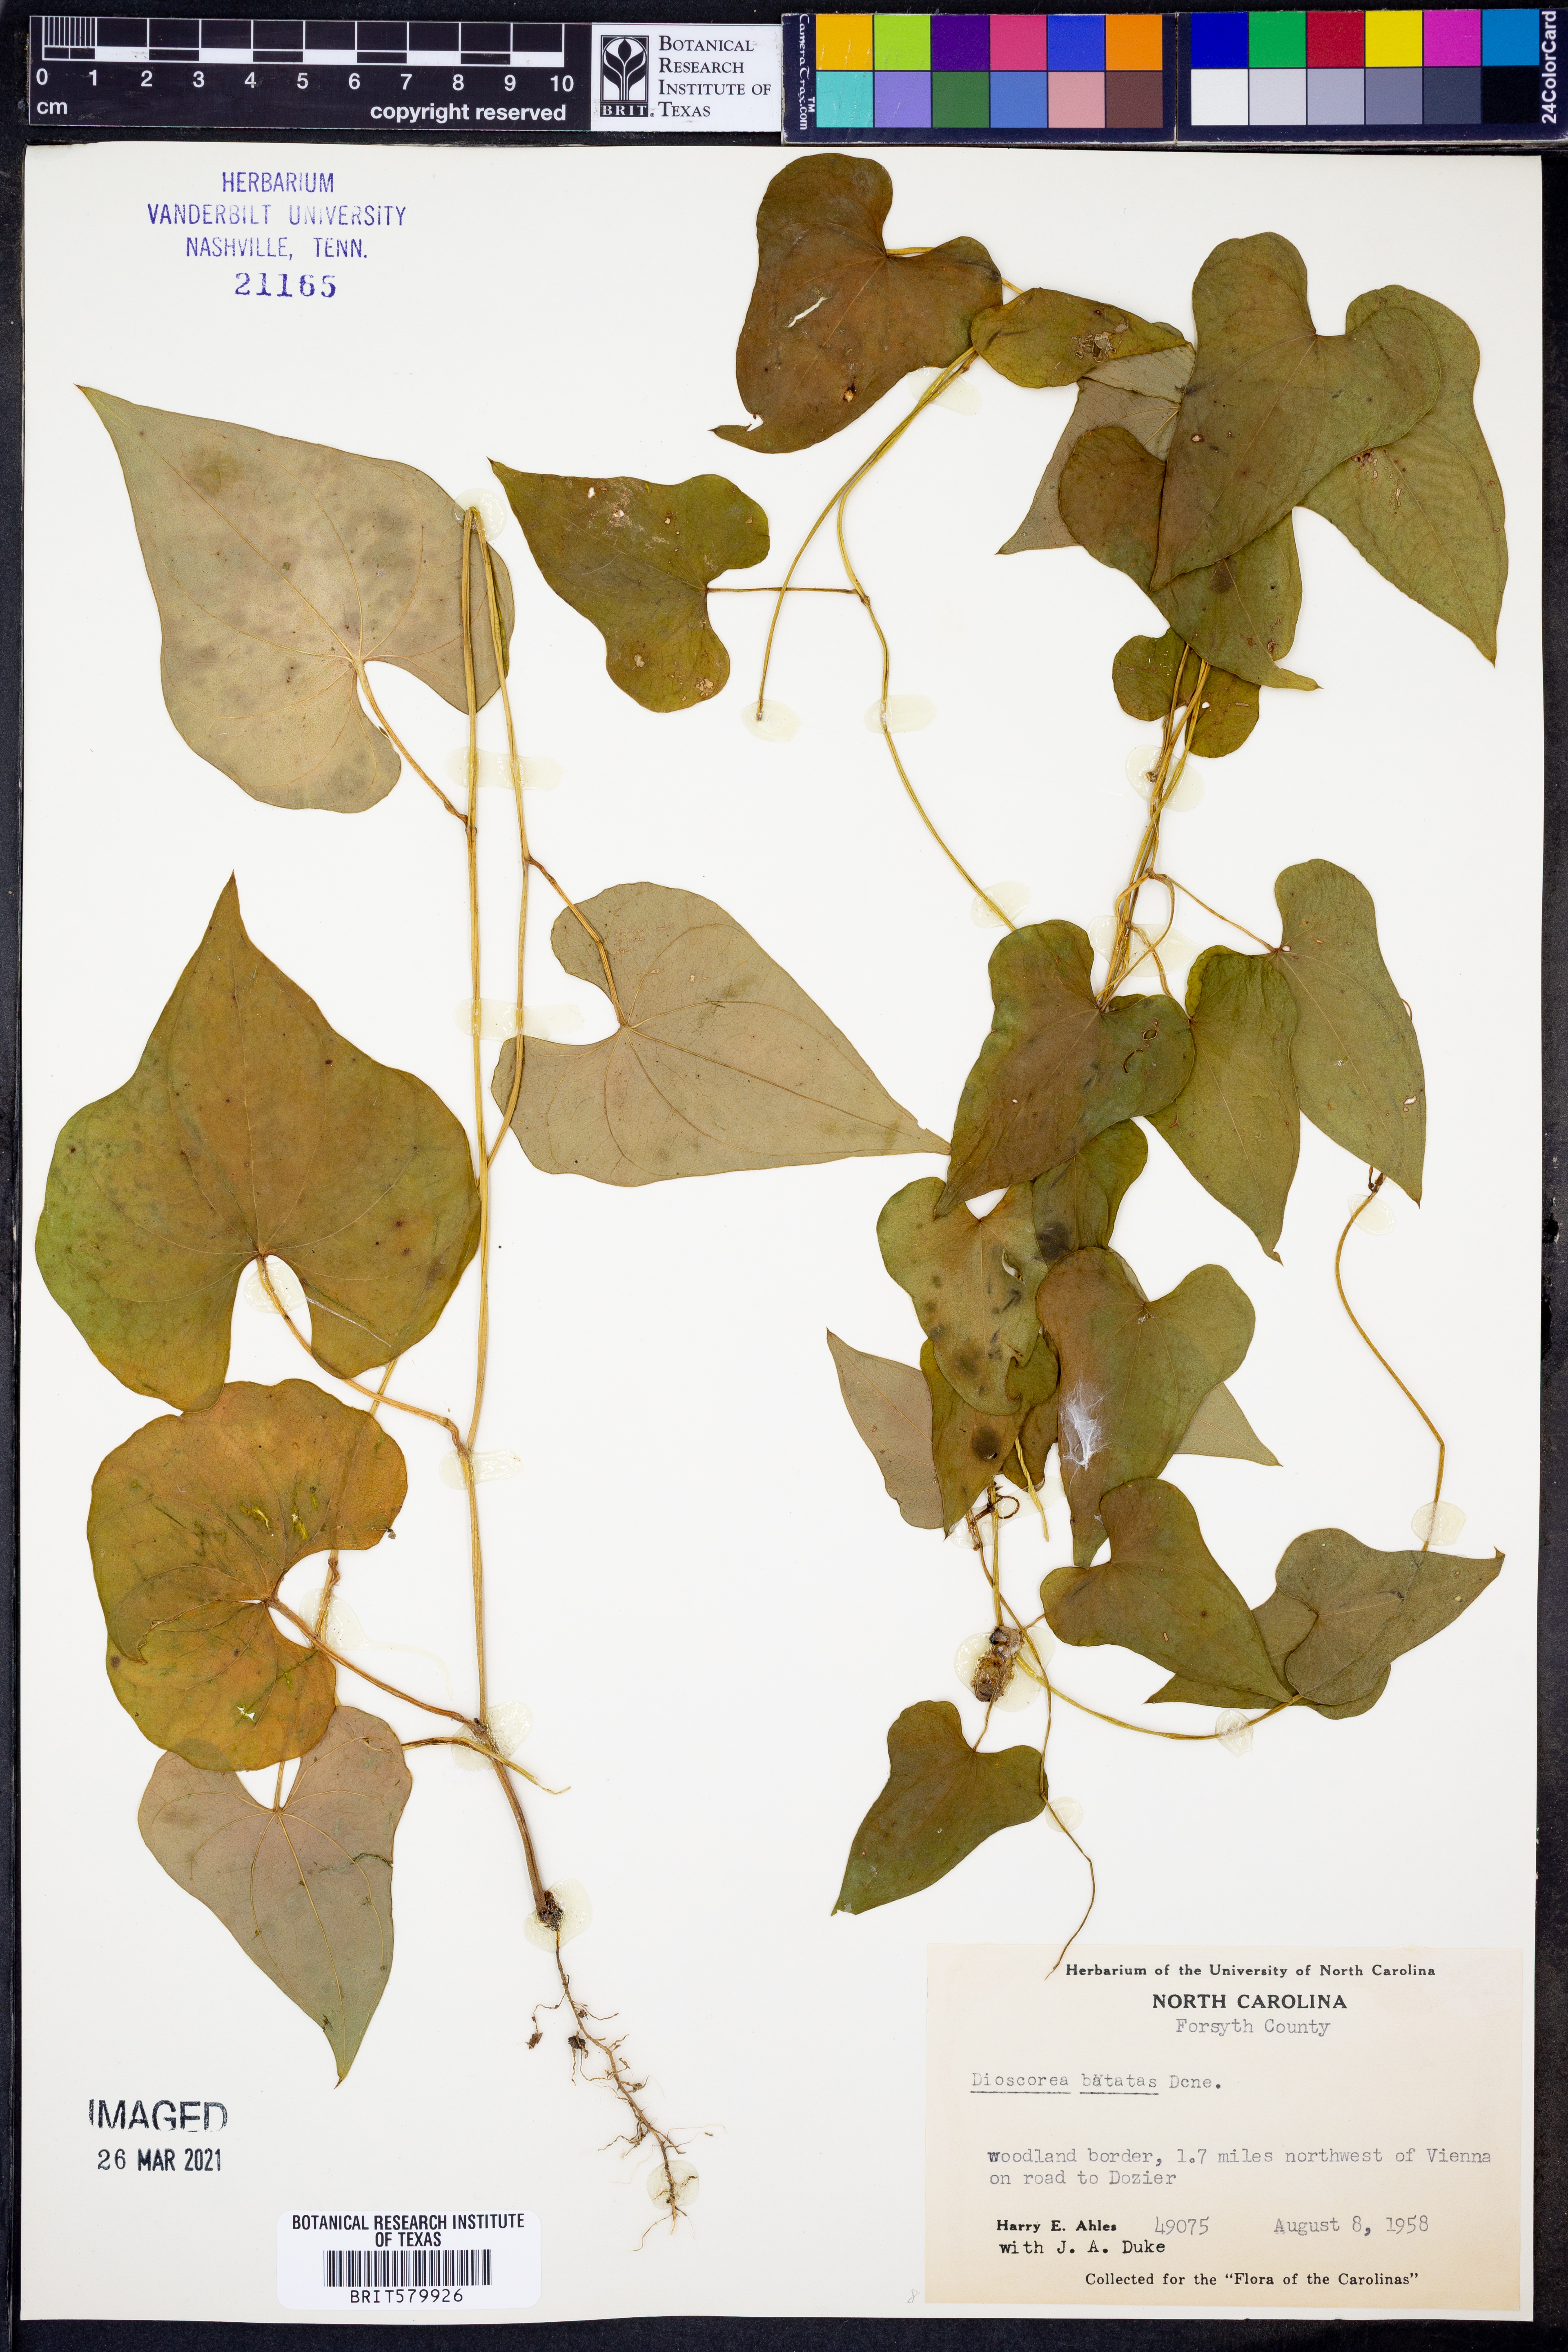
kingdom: Plantae
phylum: Tracheophyta
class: Liliopsida
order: Dioscoreales
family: Dioscoreaceae
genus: Dioscorea
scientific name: Dioscorea polystachya
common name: Chinese yam
